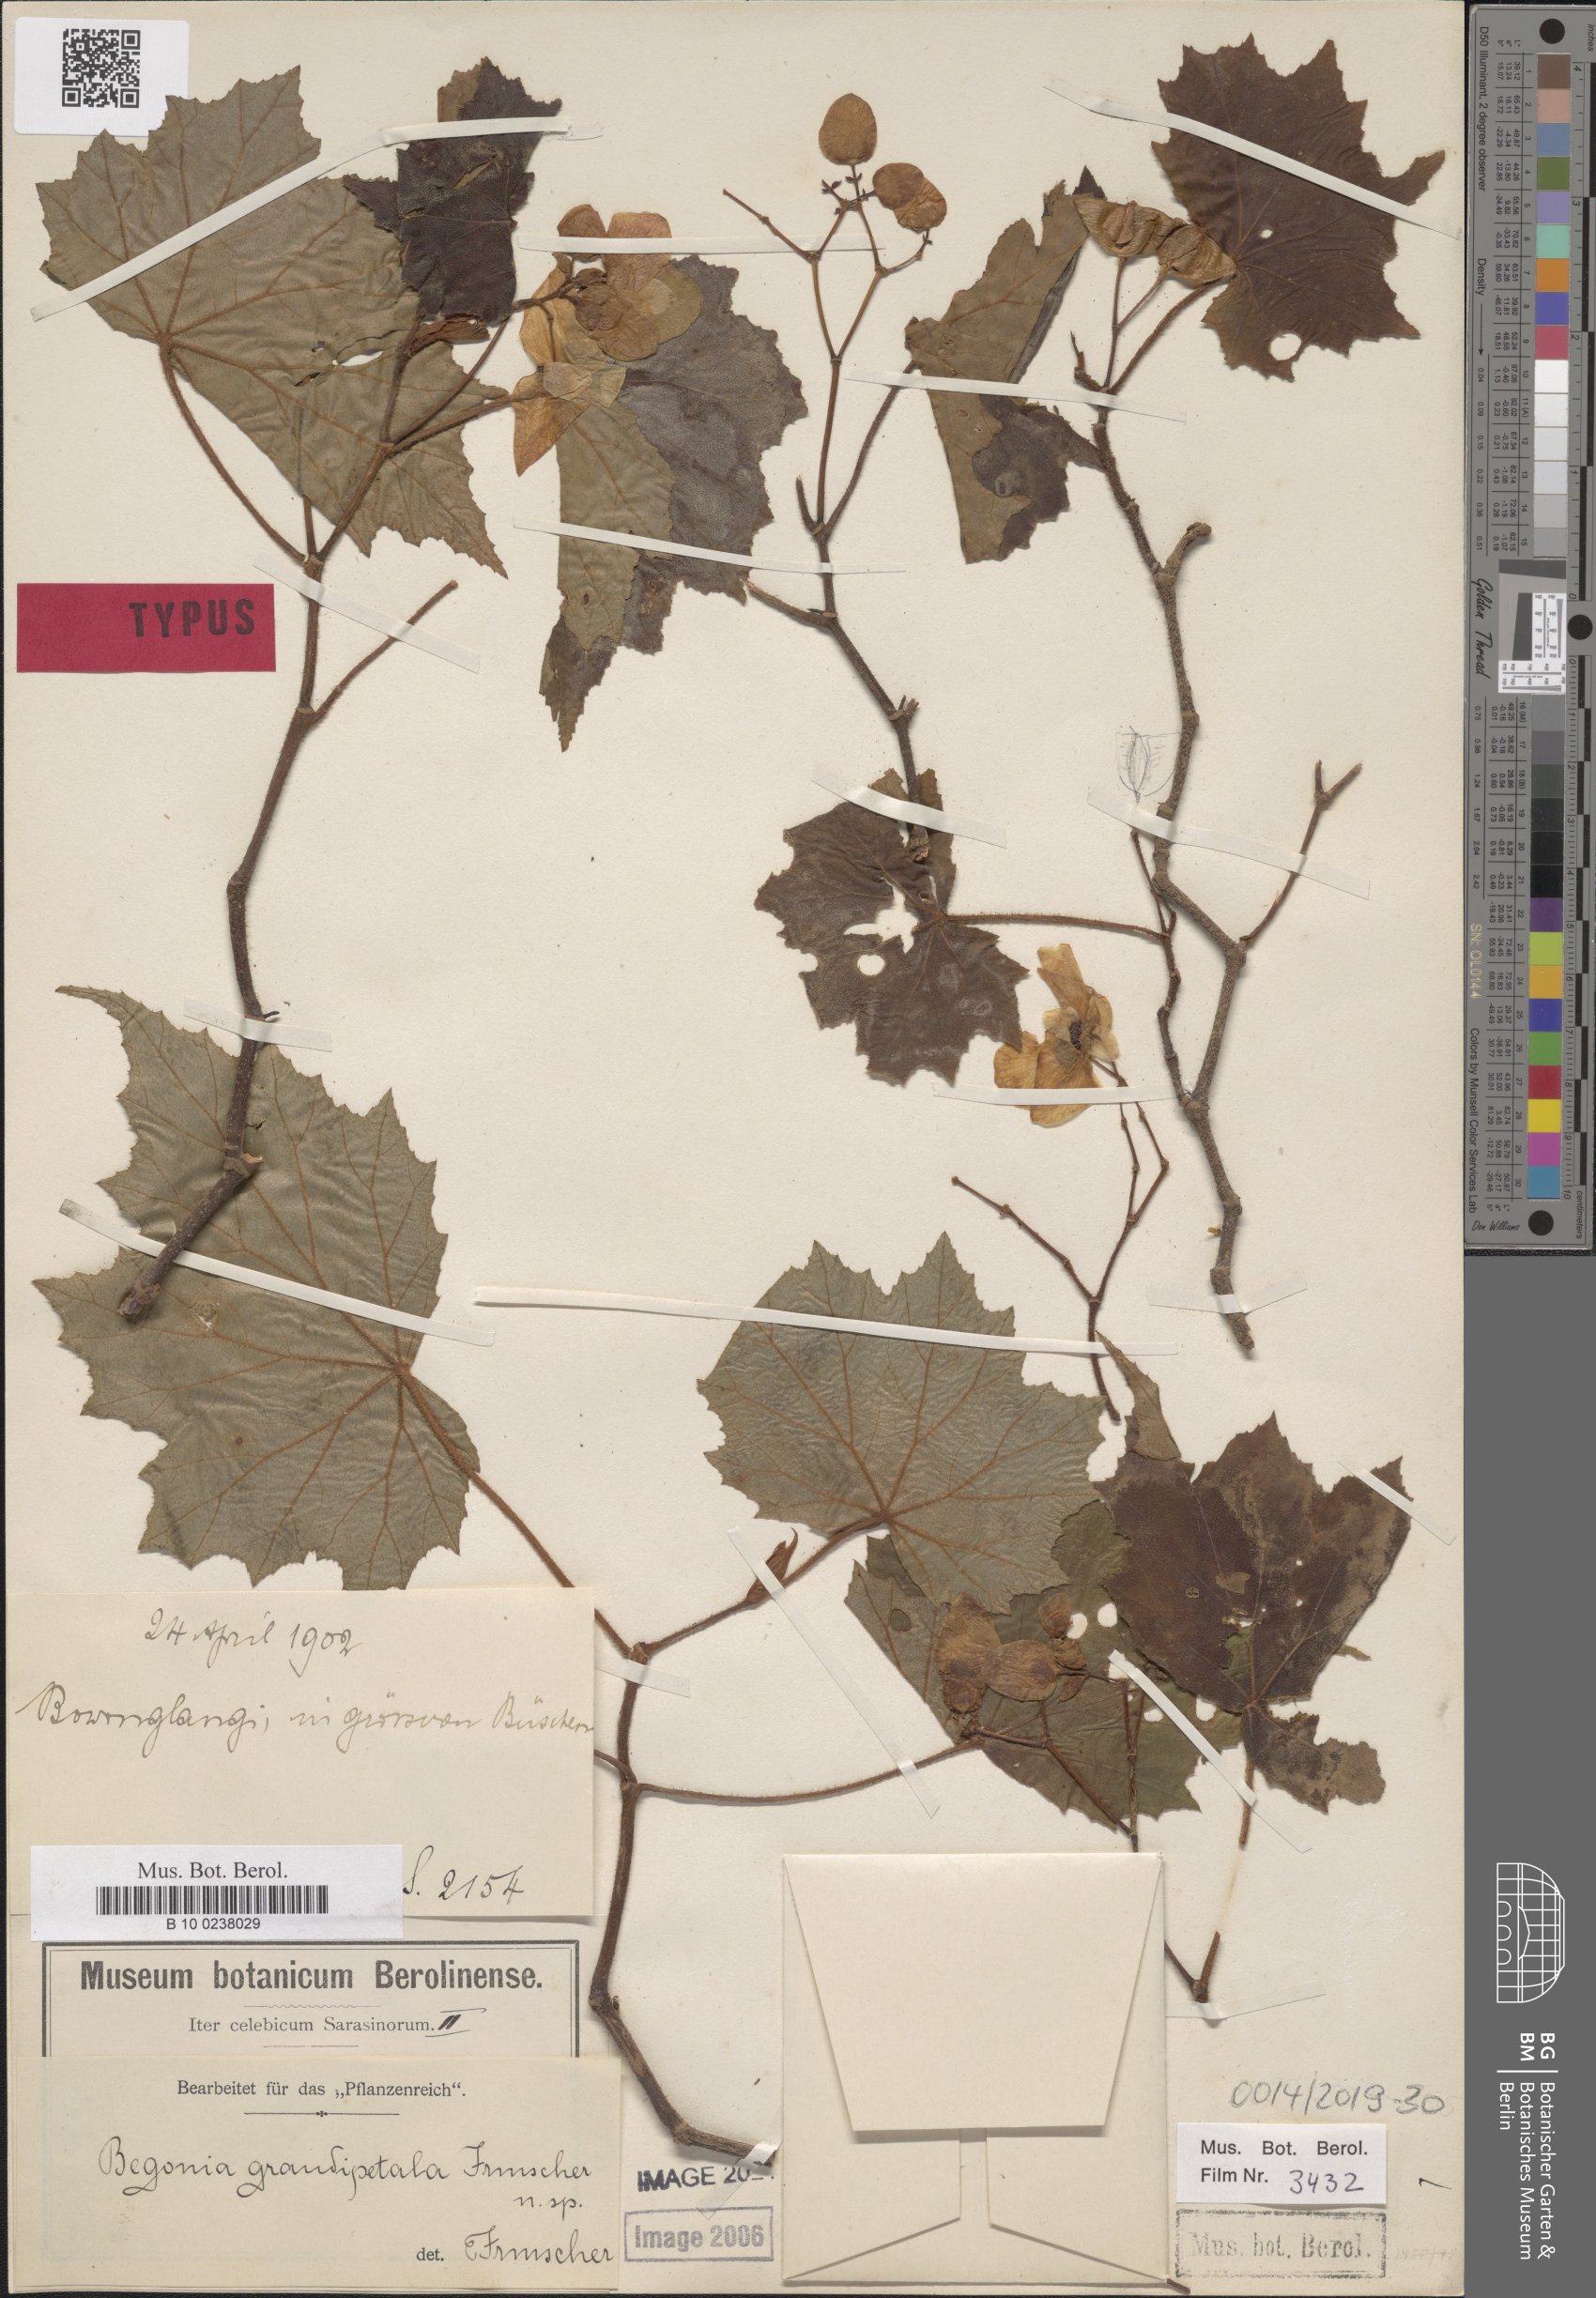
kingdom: Plantae
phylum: Tracheophyta
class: Magnoliopsida
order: Cucurbitales
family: Begoniaceae
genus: Begonia
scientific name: Begonia bonthainensis
